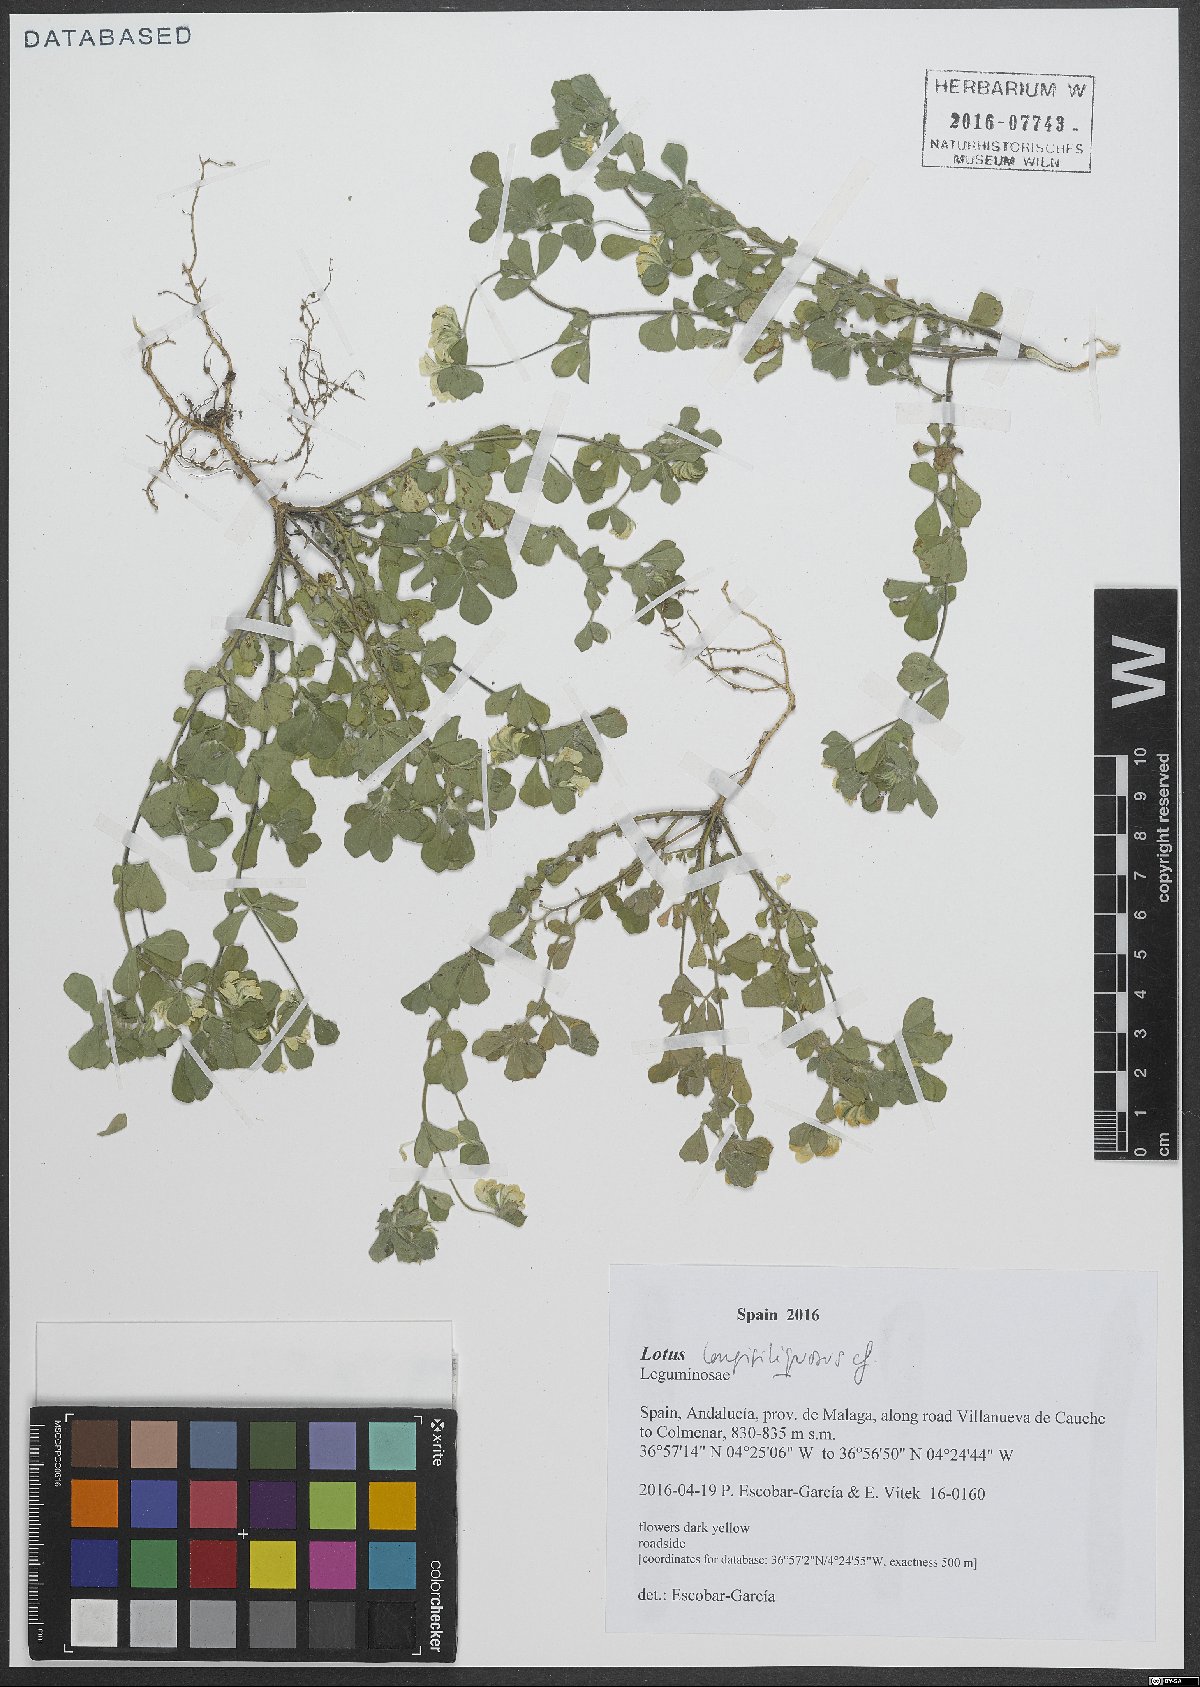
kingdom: Plantae
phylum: Tracheophyta
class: Magnoliopsida
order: Fabales
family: Fabaceae
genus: Lotus
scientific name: Lotus longisiliquosus
